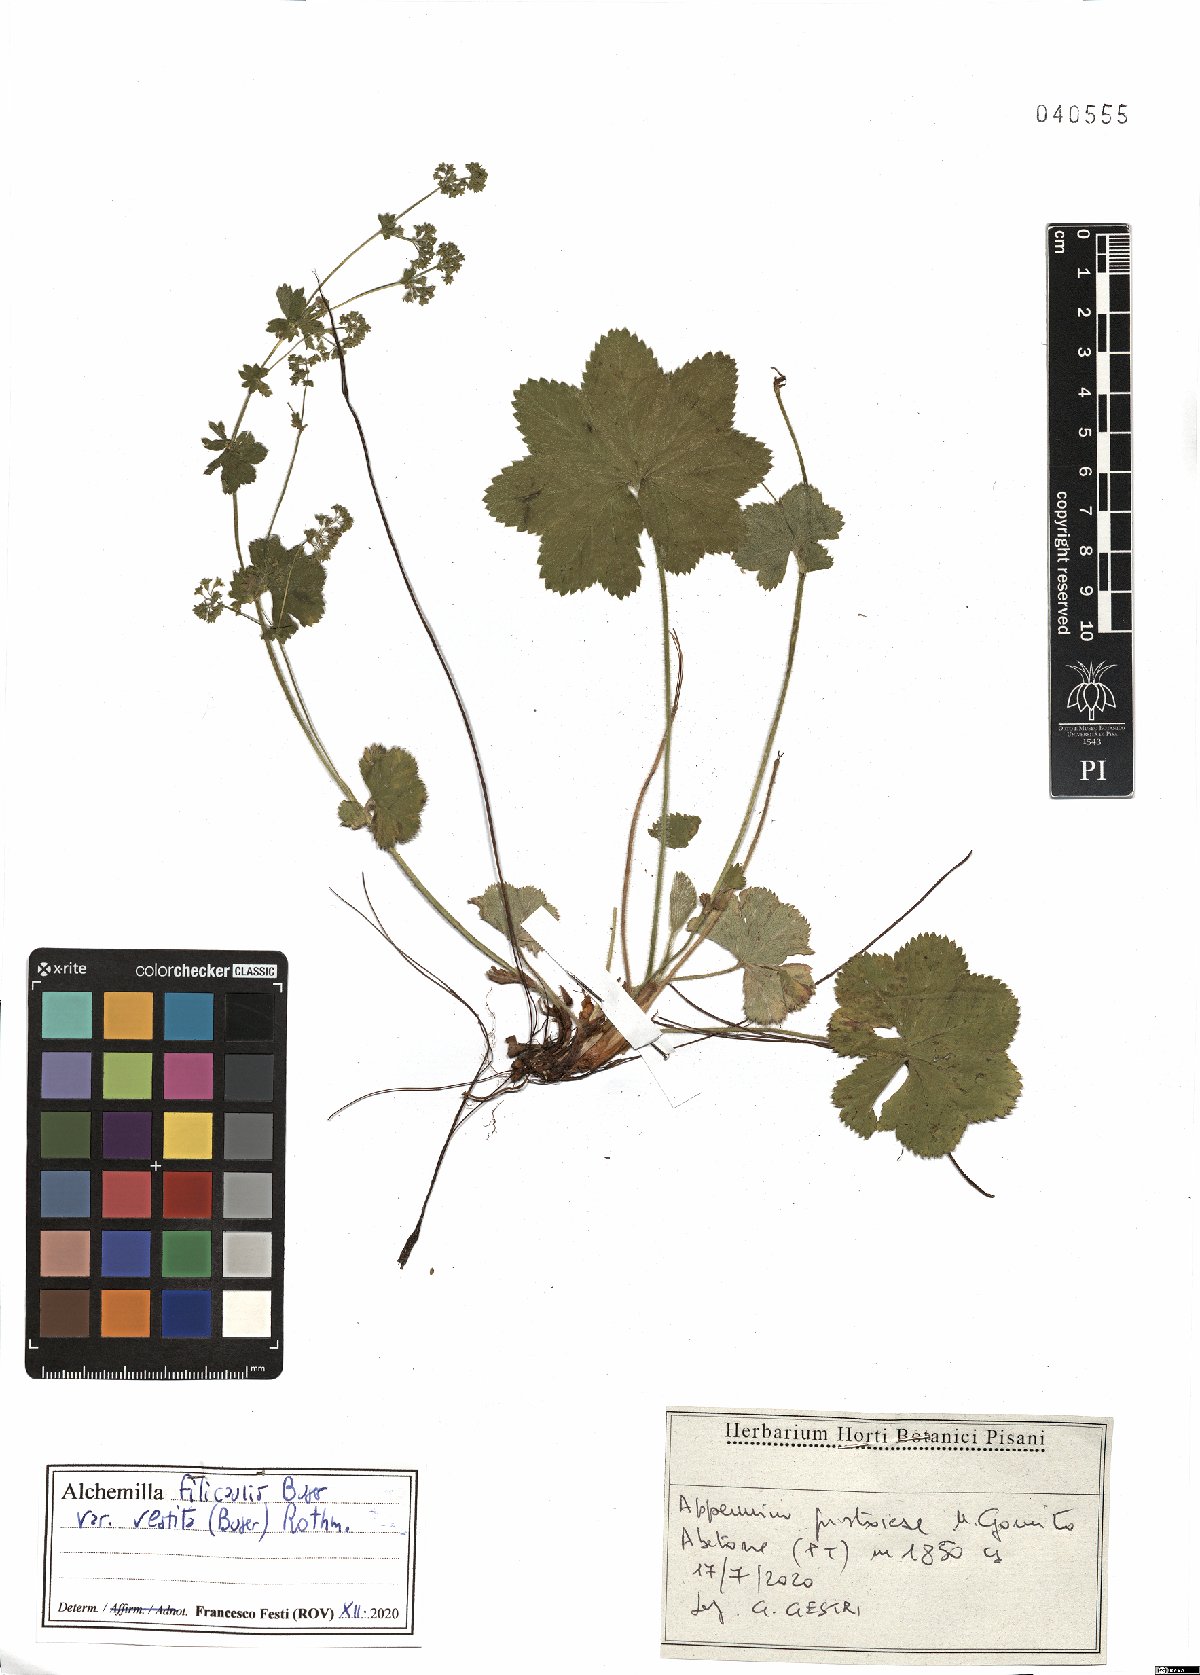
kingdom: Plantae
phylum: Tracheophyta
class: Magnoliopsida
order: Rosales
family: Rosaceae
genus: Alchemilla
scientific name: Alchemilla filicaulis
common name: Hairy lady's-mantle
